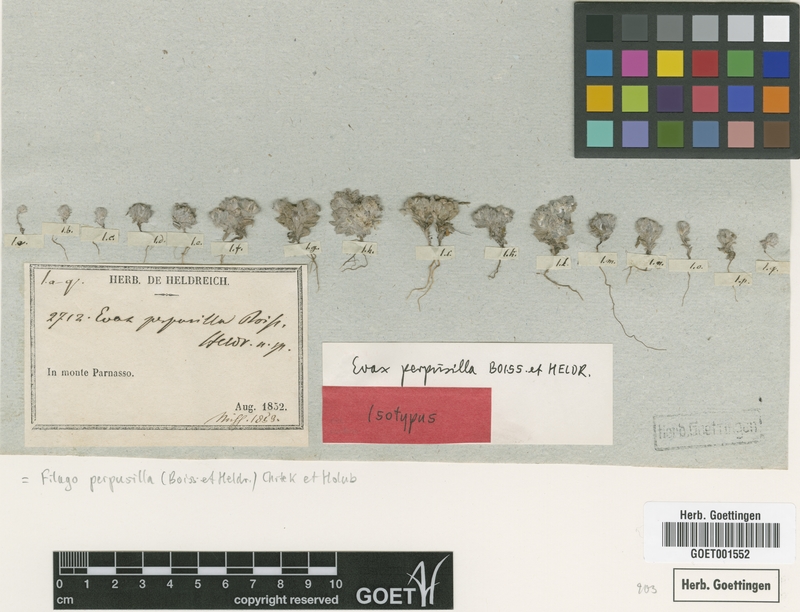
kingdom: Plantae
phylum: Tracheophyta
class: Magnoliopsida
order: Asterales
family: Asteraceae
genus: Filago
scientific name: Filago perpusilla
